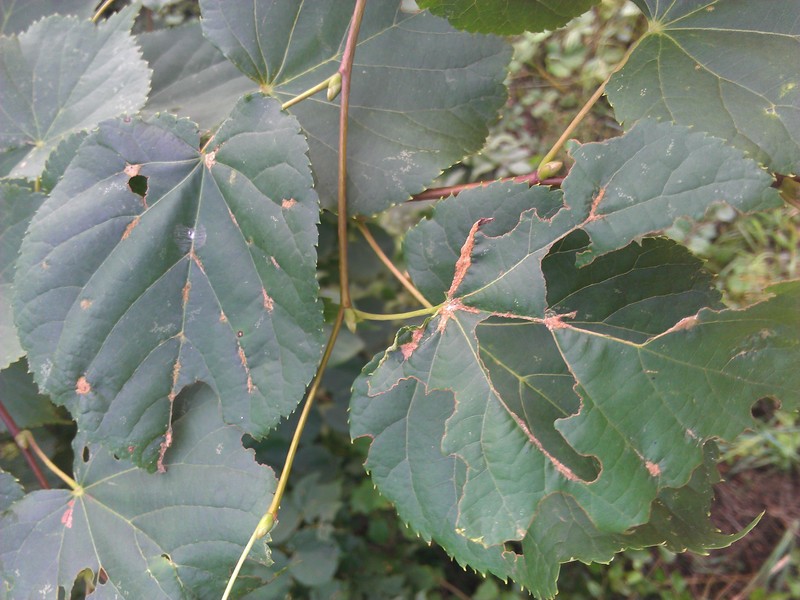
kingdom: Animalia
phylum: Arthropoda
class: Arachnida
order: Trombidiformes
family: Eriophyidae
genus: Eriophyes
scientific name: Eriophyes leiosoma
